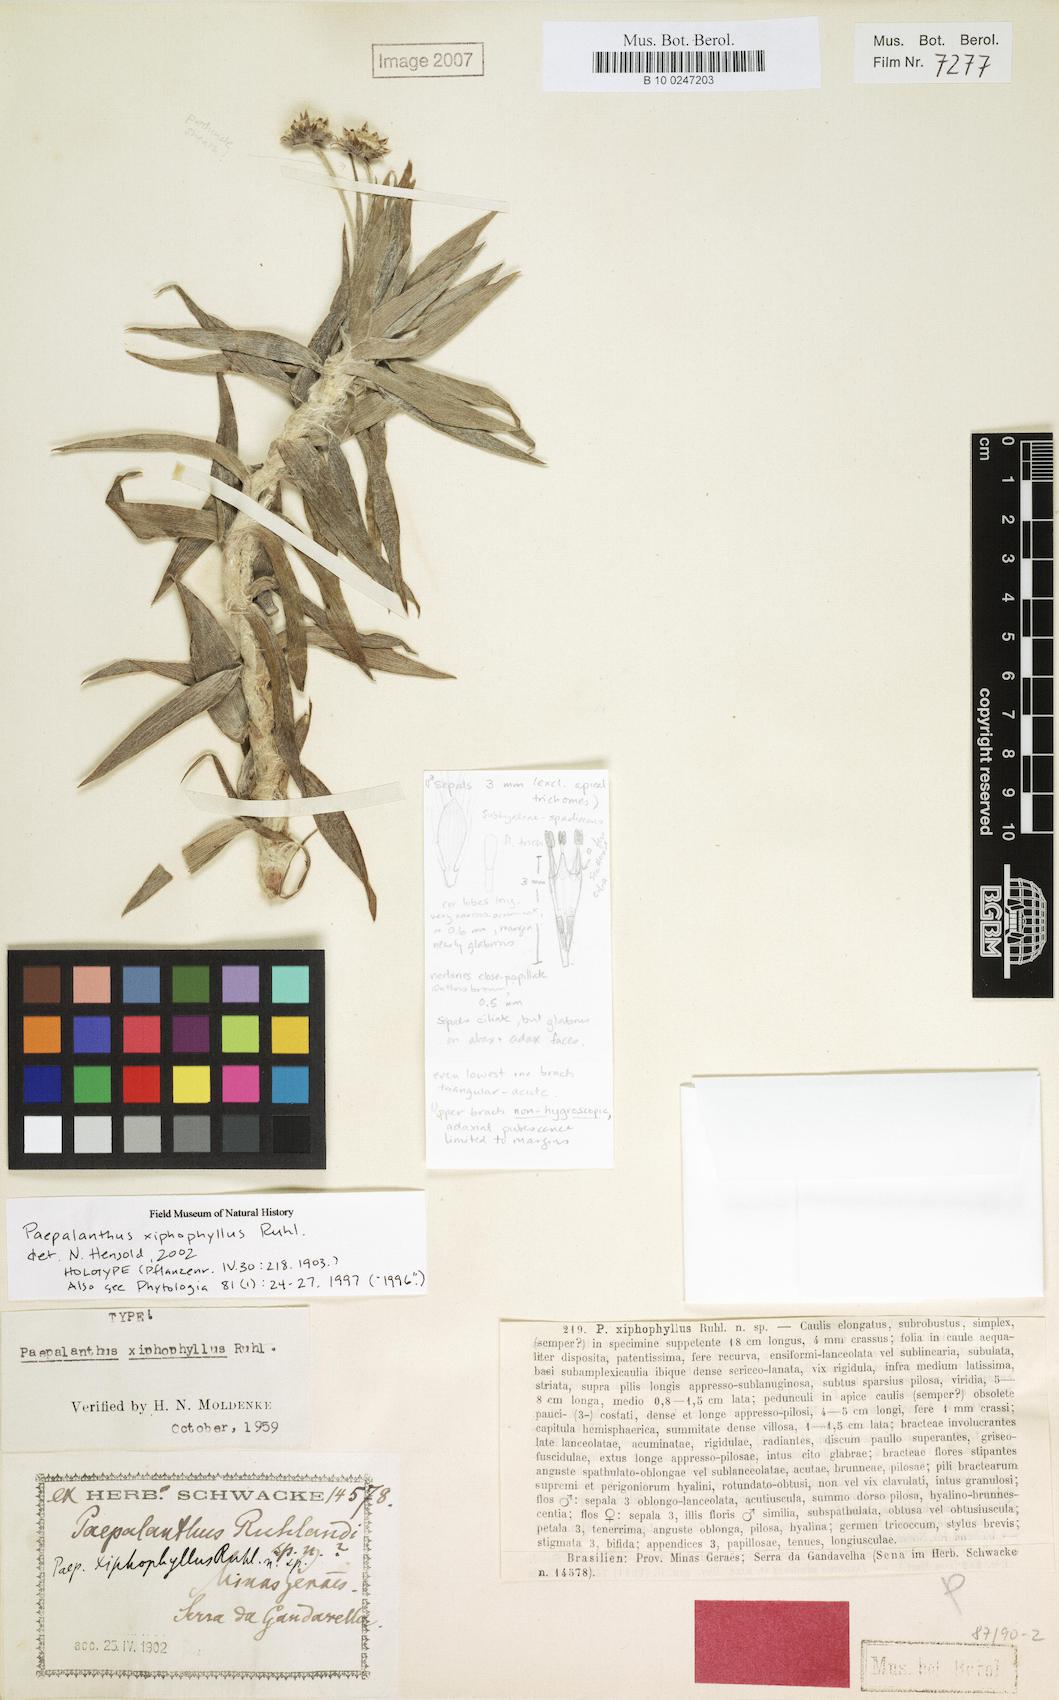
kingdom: Plantae
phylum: Tracheophyta
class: Liliopsida
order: Poales
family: Eriocaulaceae
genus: Paepalanthus
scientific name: Paepalanthus xiphophyllus
